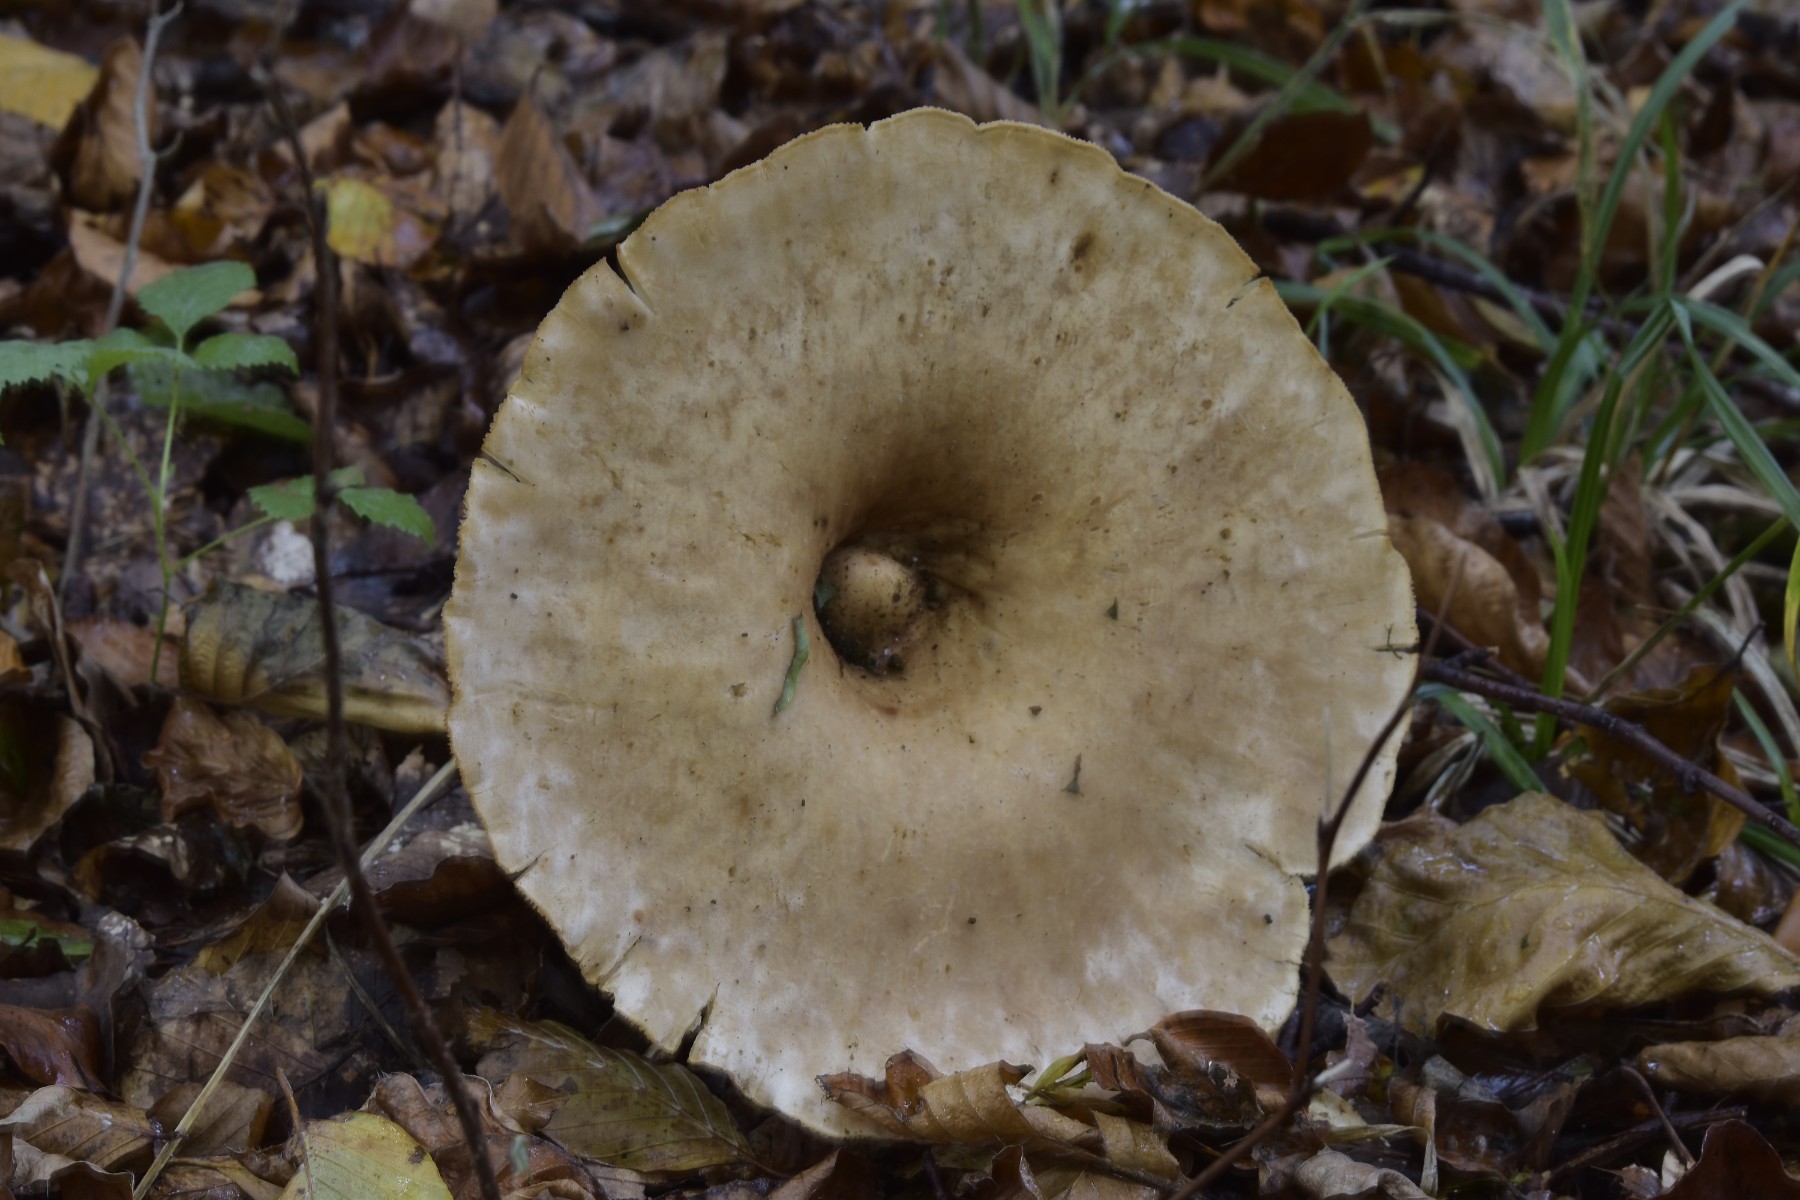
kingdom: Fungi
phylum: Basidiomycota
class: Agaricomycetes
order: Agaricales
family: Tricholomataceae
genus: Infundibulicybe
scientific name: Infundibulicybe geotropa
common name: stor tragthat
